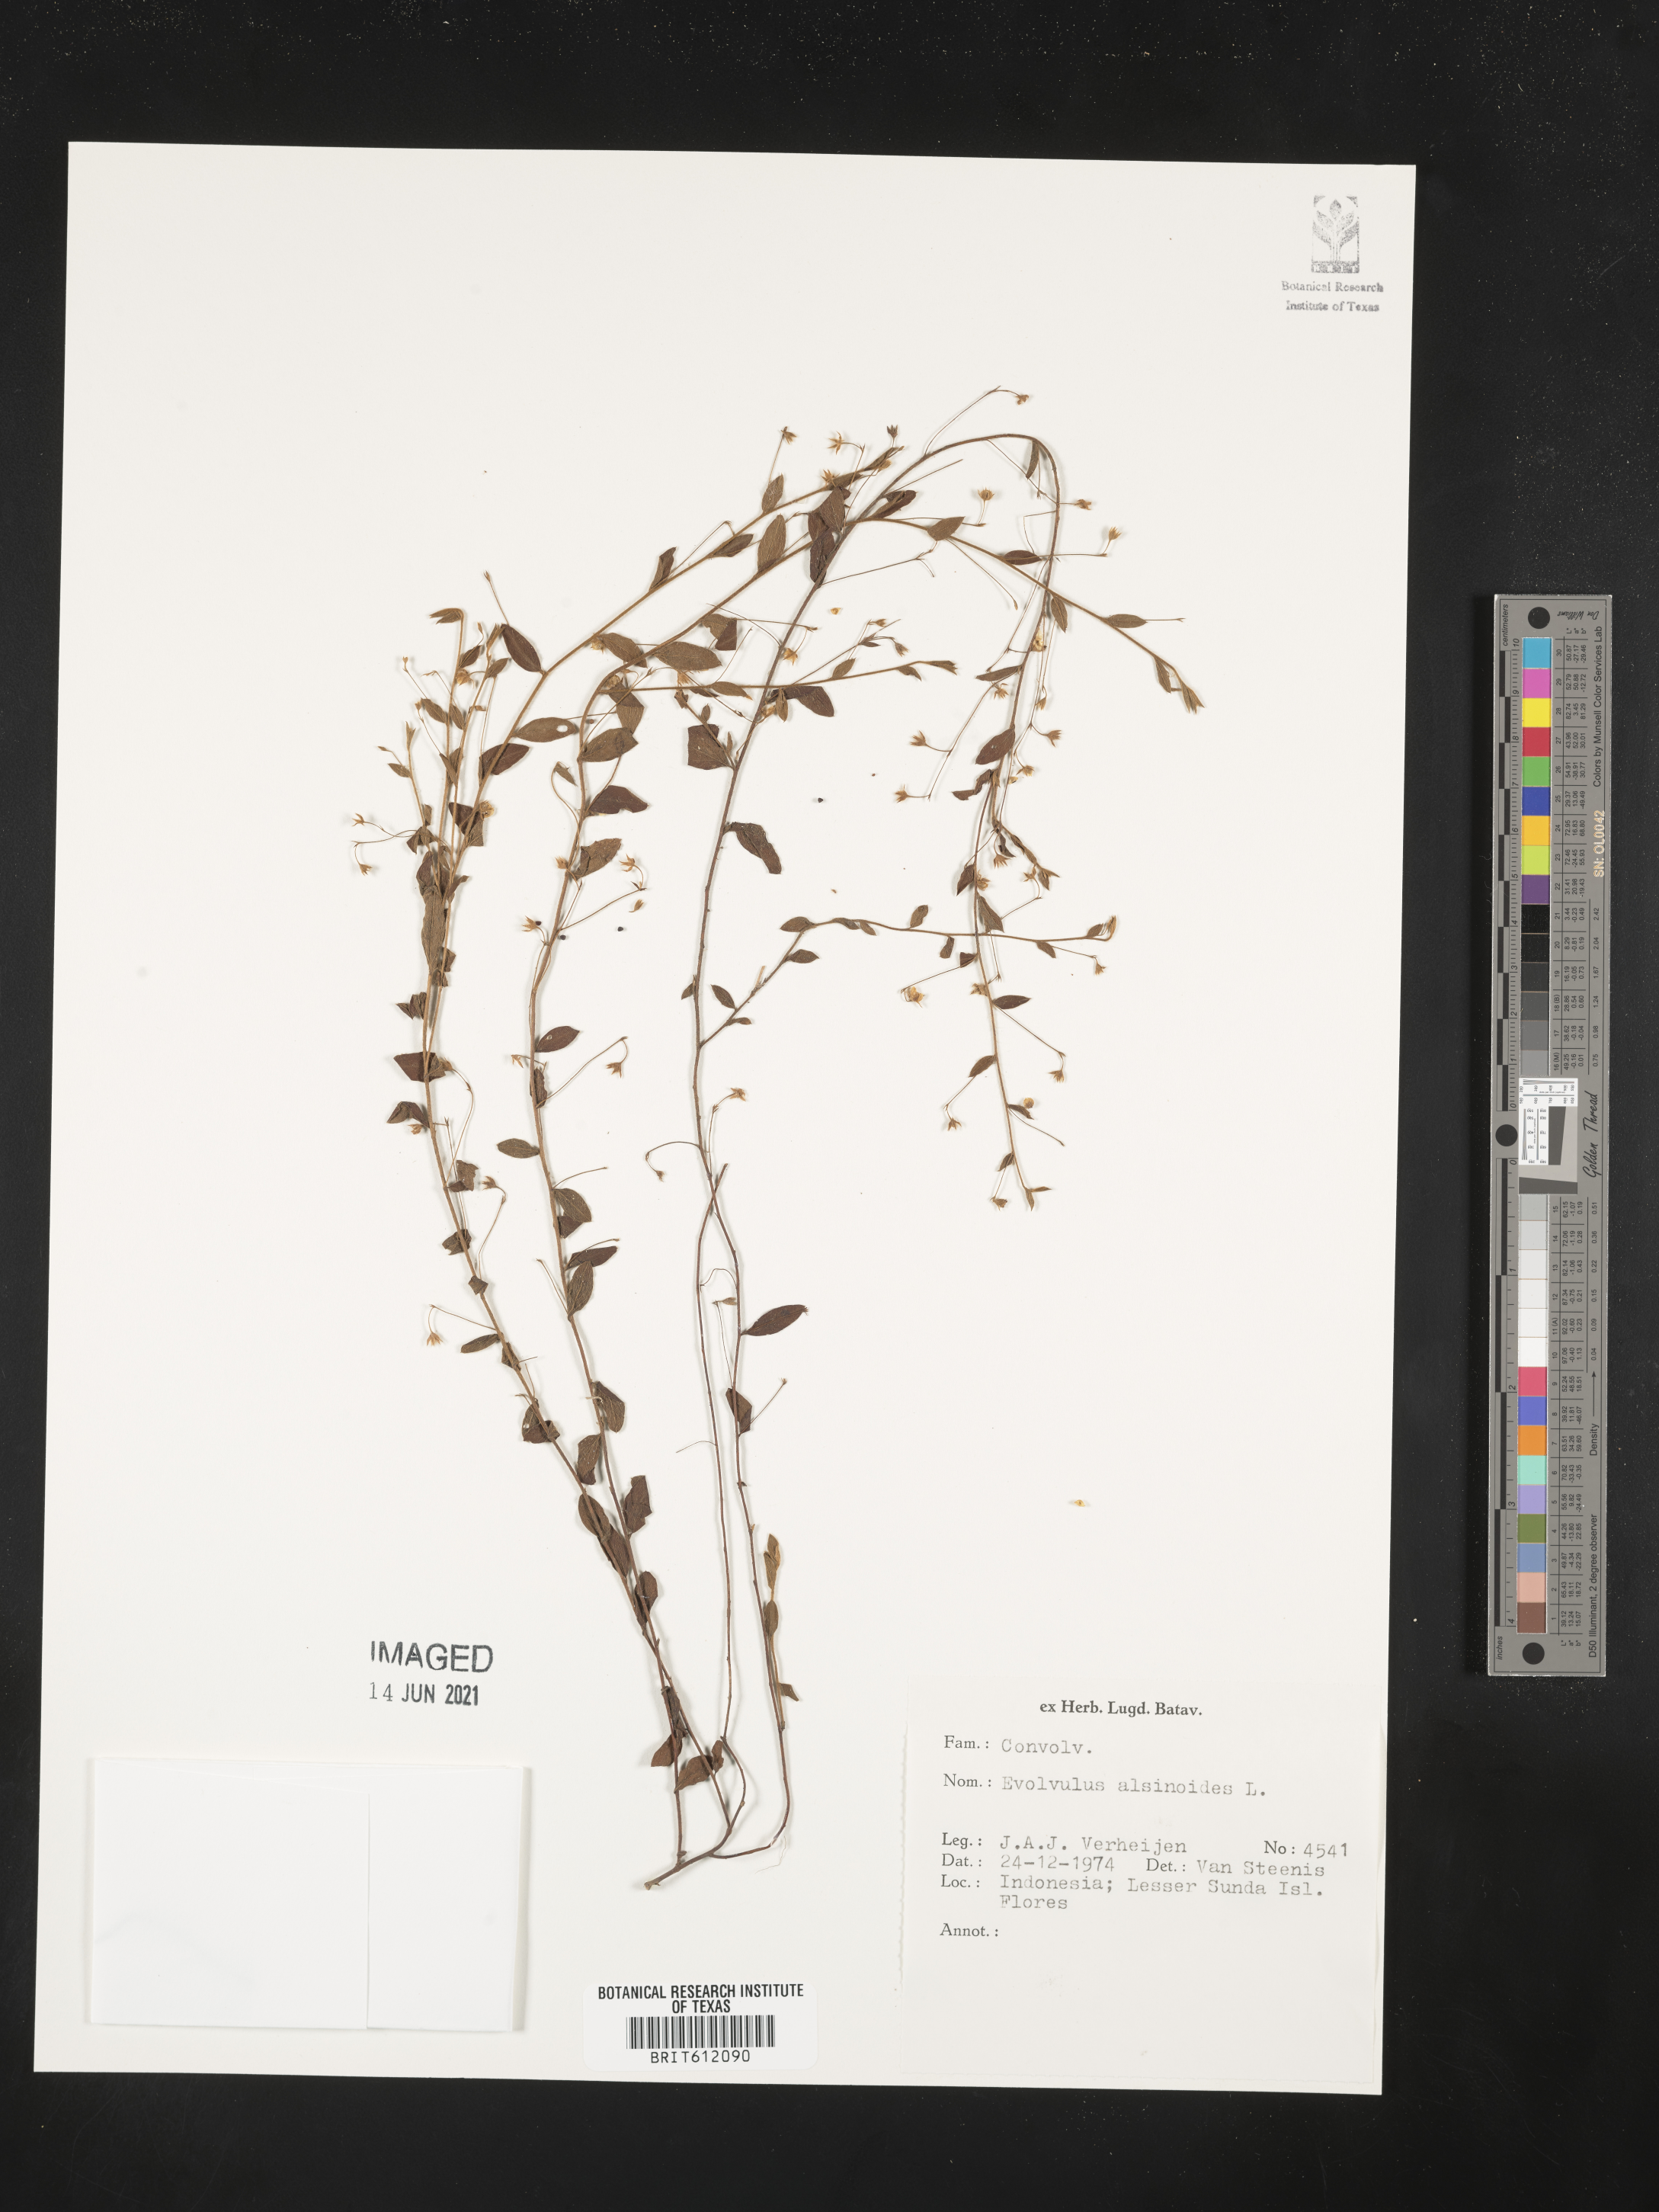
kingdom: Plantae
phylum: Tracheophyta
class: Magnoliopsida
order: Solanales
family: Convolvulaceae
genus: Evolvulus
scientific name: Evolvulus alsinoides
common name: Slender dwarf morning-glory
